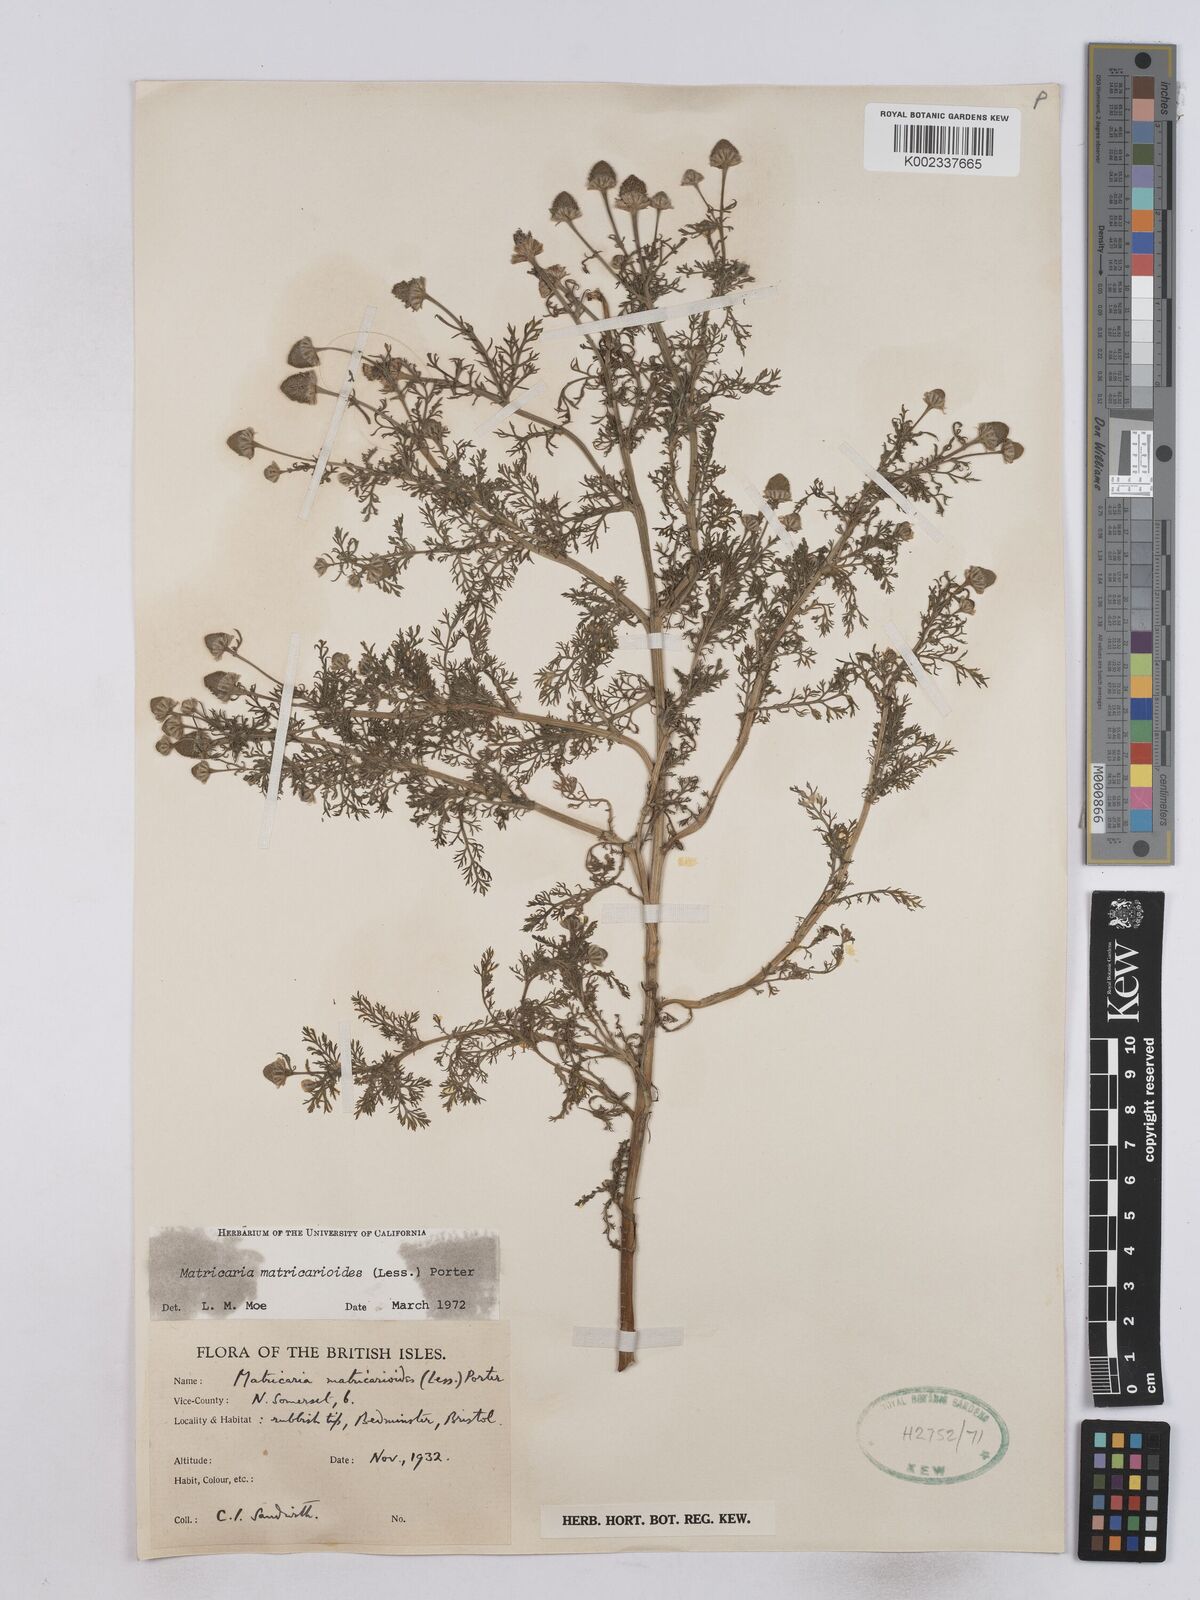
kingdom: Plantae
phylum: Tracheophyta
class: Magnoliopsida
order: Asterales
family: Asteraceae
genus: Matricaria
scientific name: Matricaria discoidea
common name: Disc mayweed
